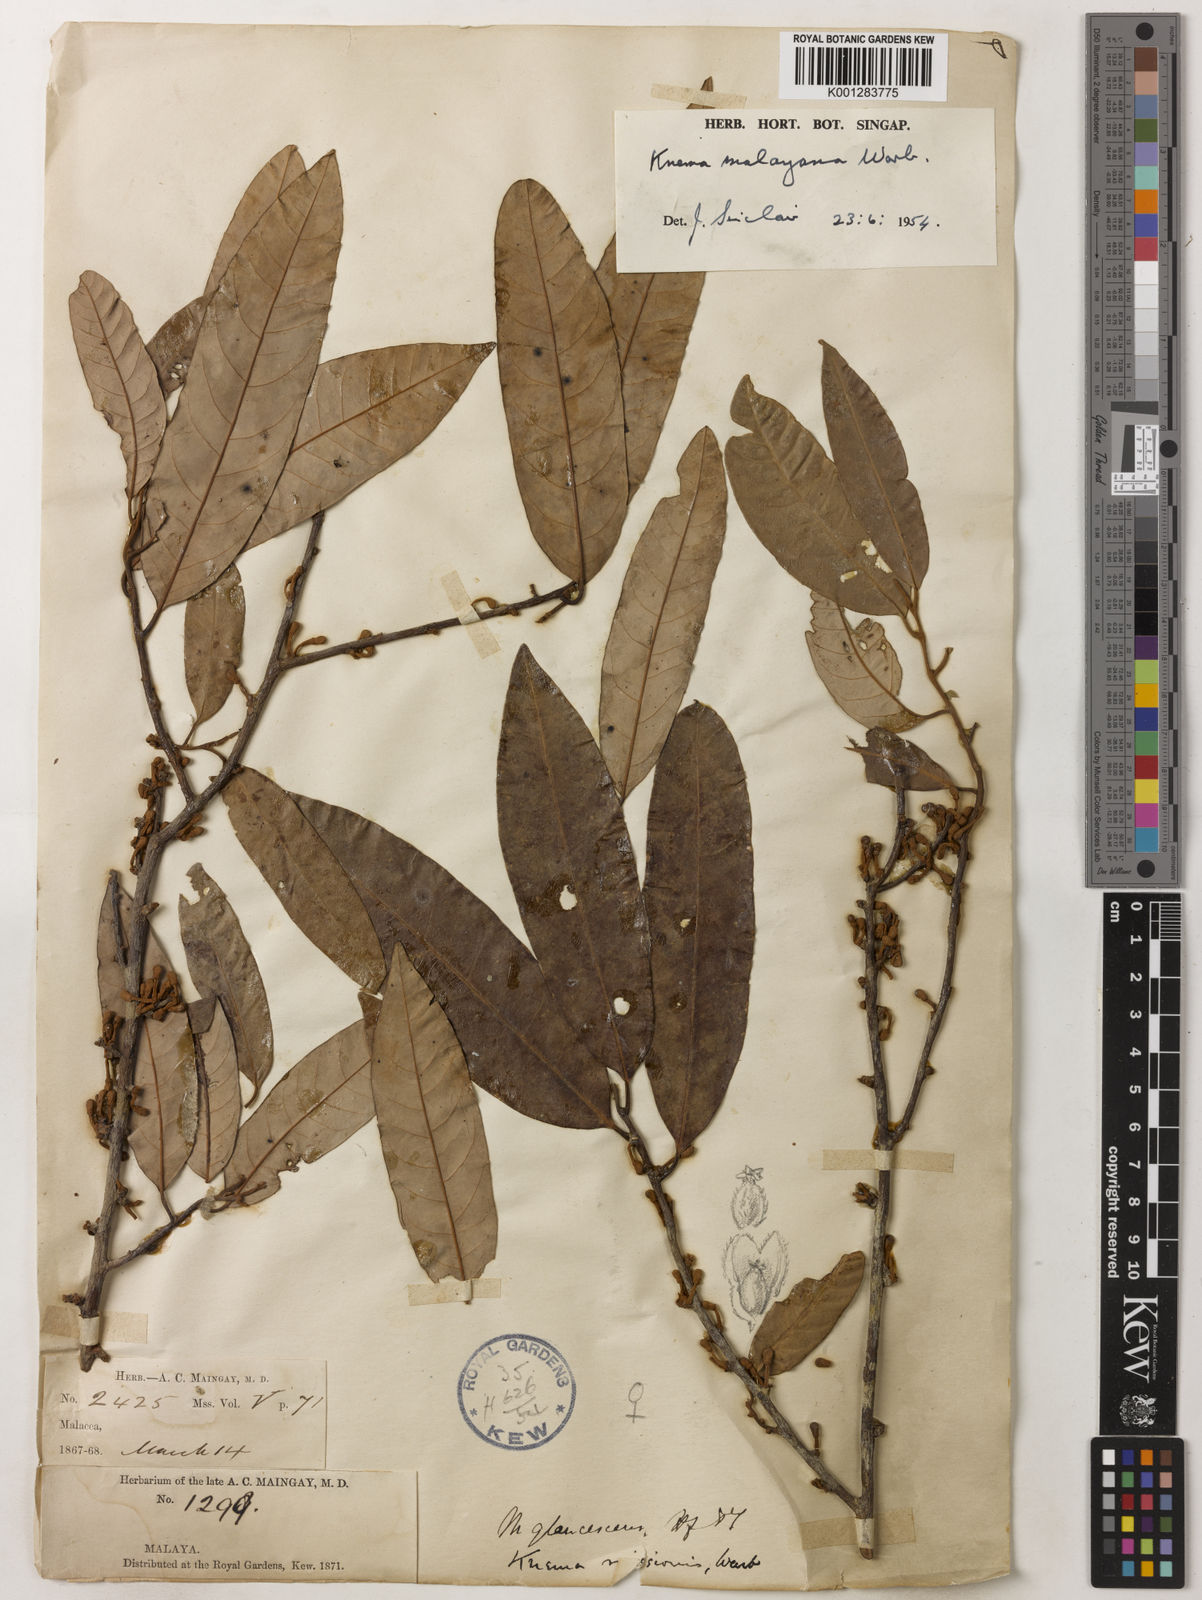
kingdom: Plantae
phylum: Tracheophyta
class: Magnoliopsida
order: Magnoliales
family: Myristicaceae
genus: Knema
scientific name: Knema malayana
